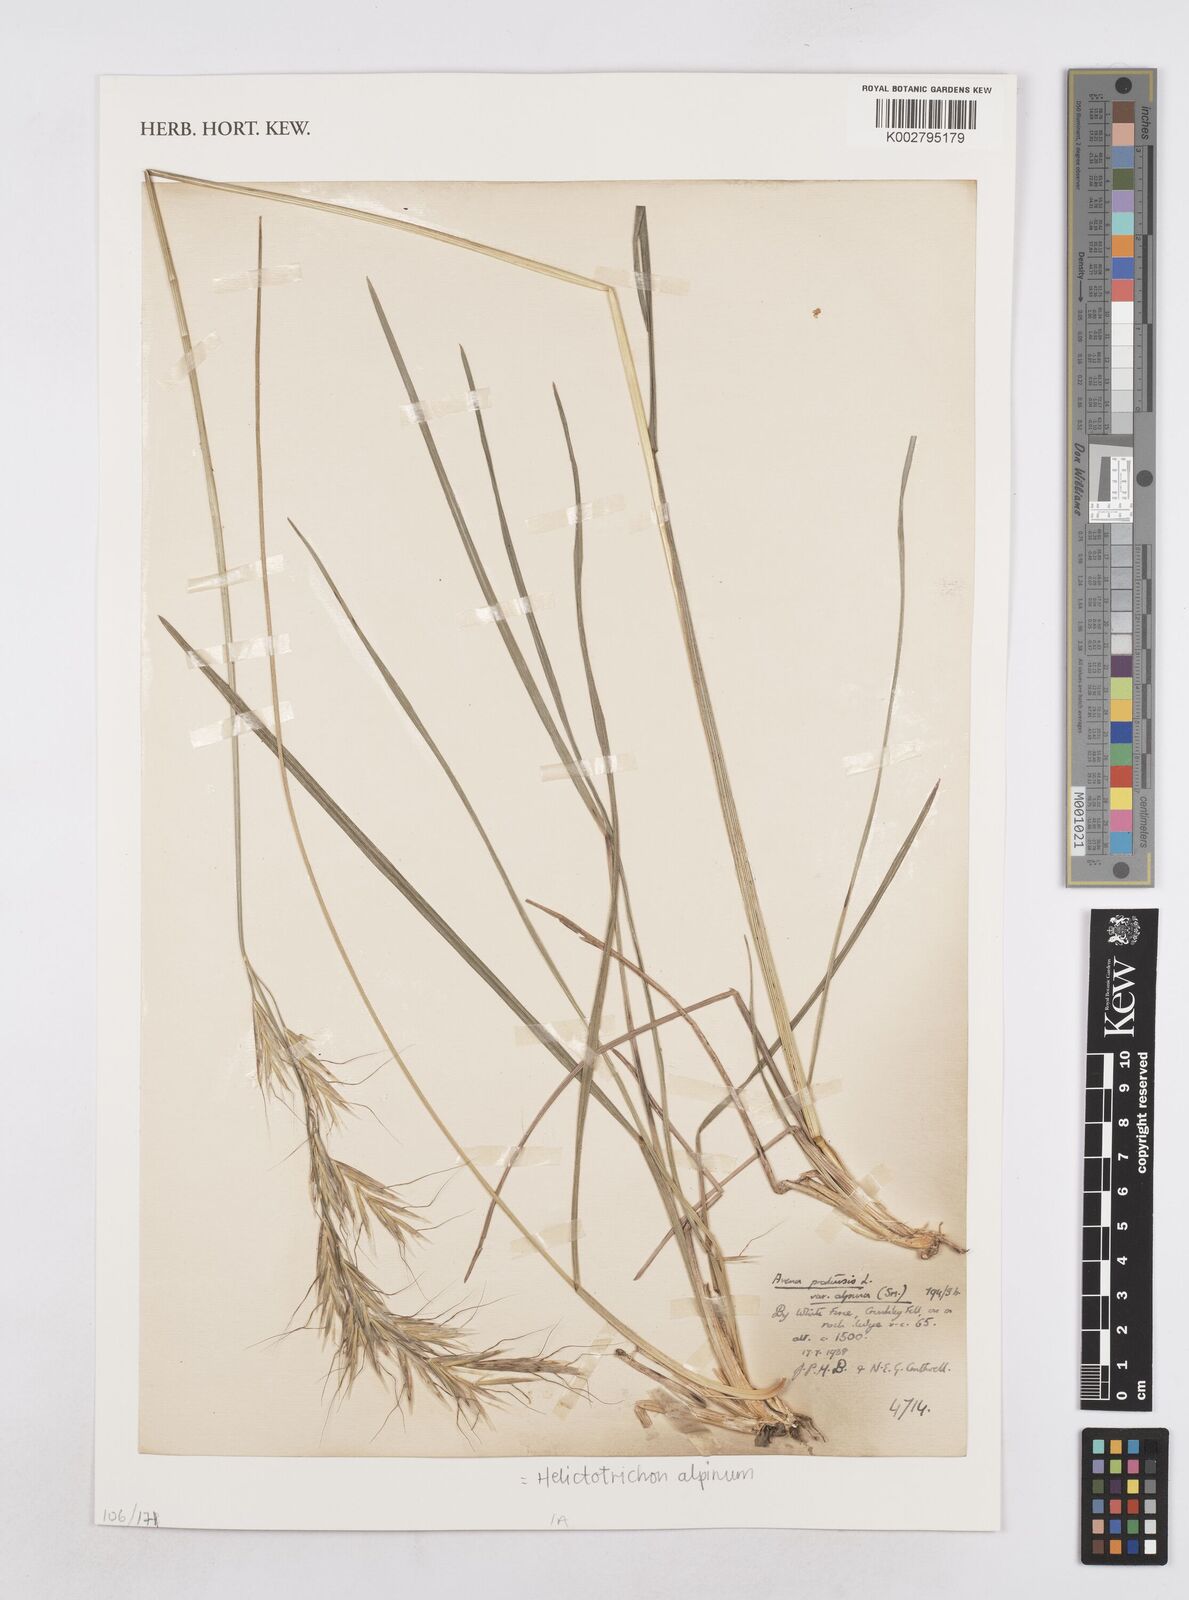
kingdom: Plantae
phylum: Tracheophyta
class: Liliopsida
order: Poales
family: Poaceae
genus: Helictochloa
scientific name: Helictochloa pratensis
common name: Meadow oat grass
